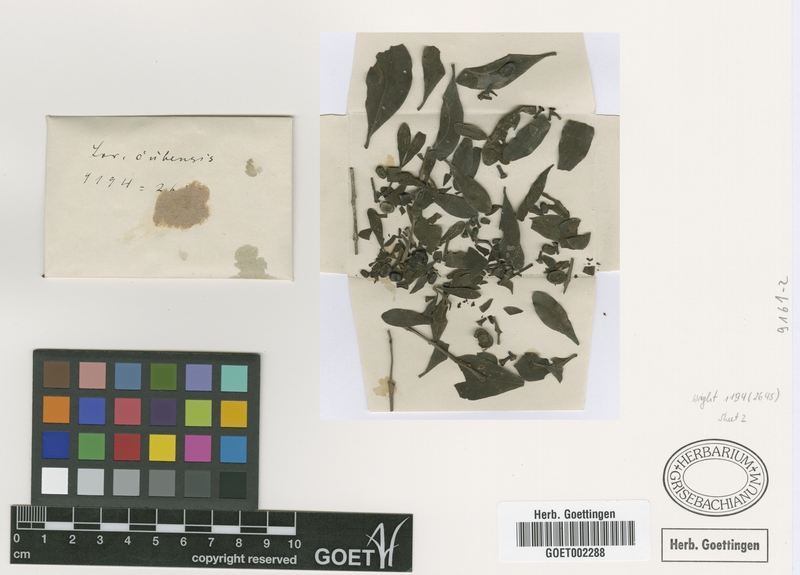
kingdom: Plantae
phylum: Tracheophyta
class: Magnoliopsida
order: Santalales
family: Loranthaceae
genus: Dendropemon
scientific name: Dendropemon purpureus
